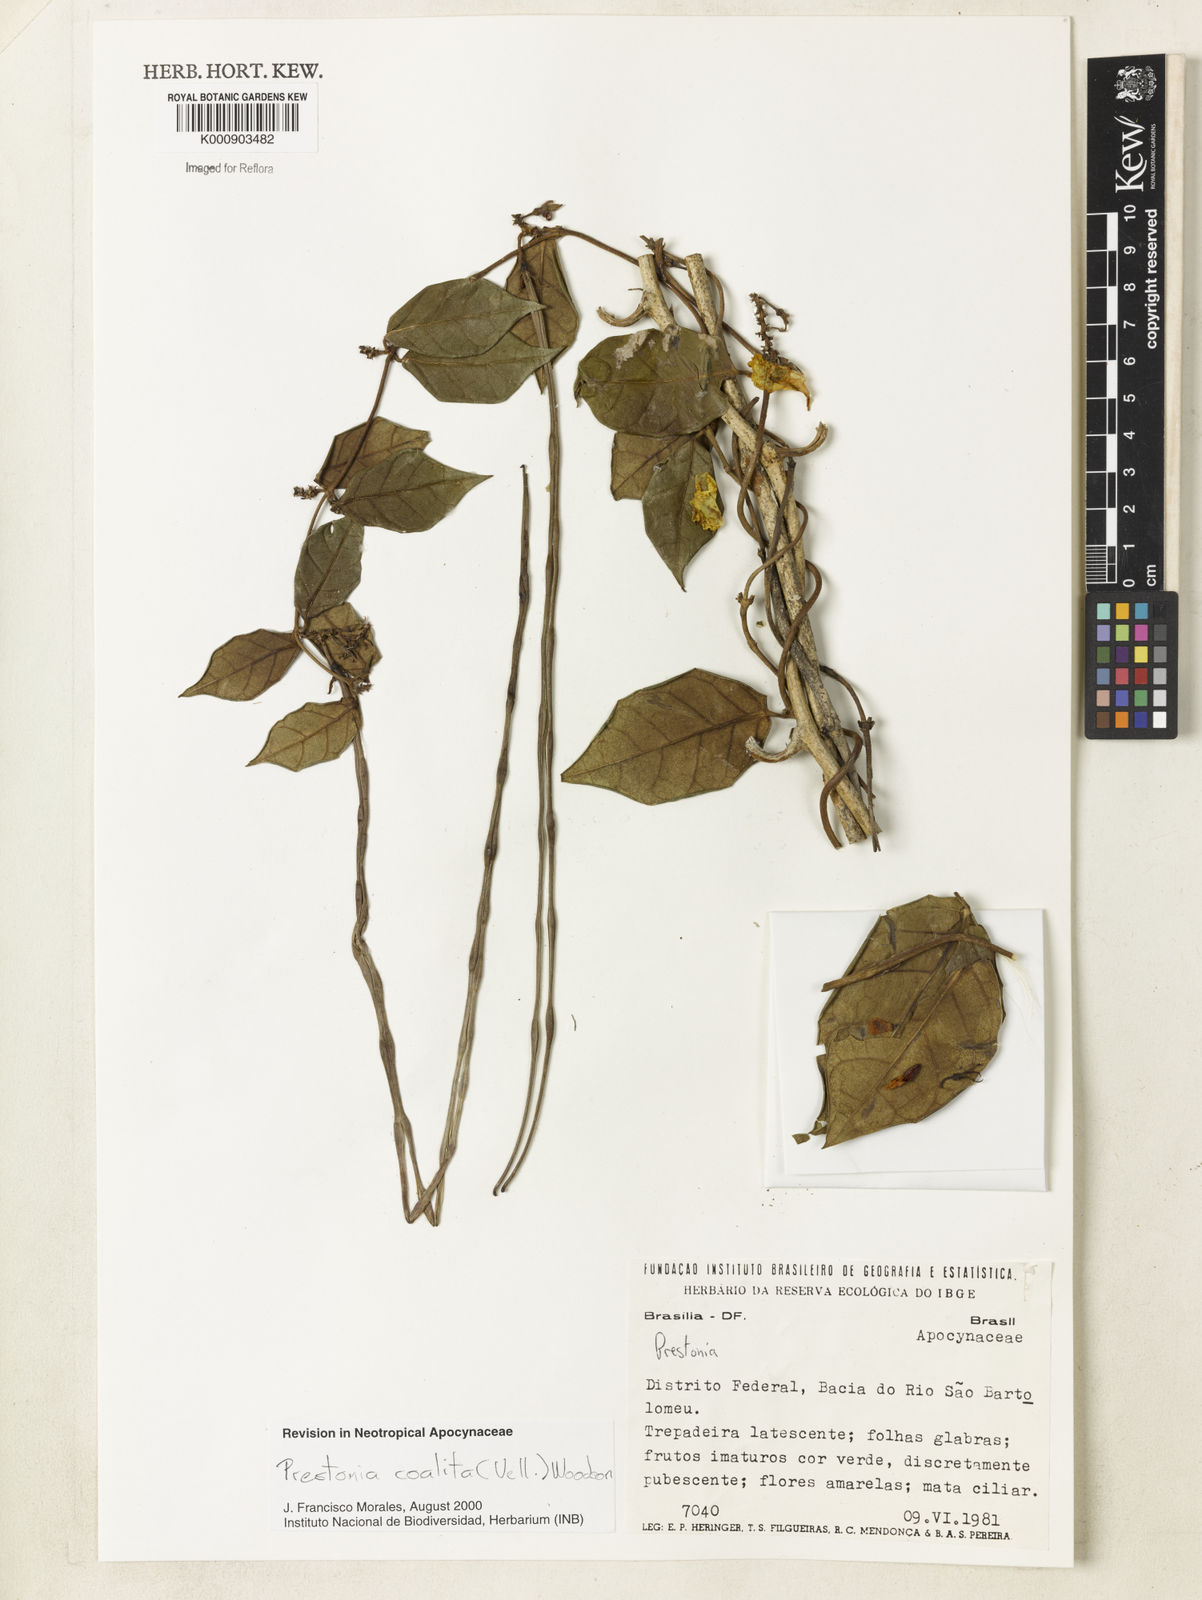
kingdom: Plantae
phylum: Tracheophyta
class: Magnoliopsida
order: Gentianales
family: Apocynaceae
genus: Prestonia
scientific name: Prestonia coalita
